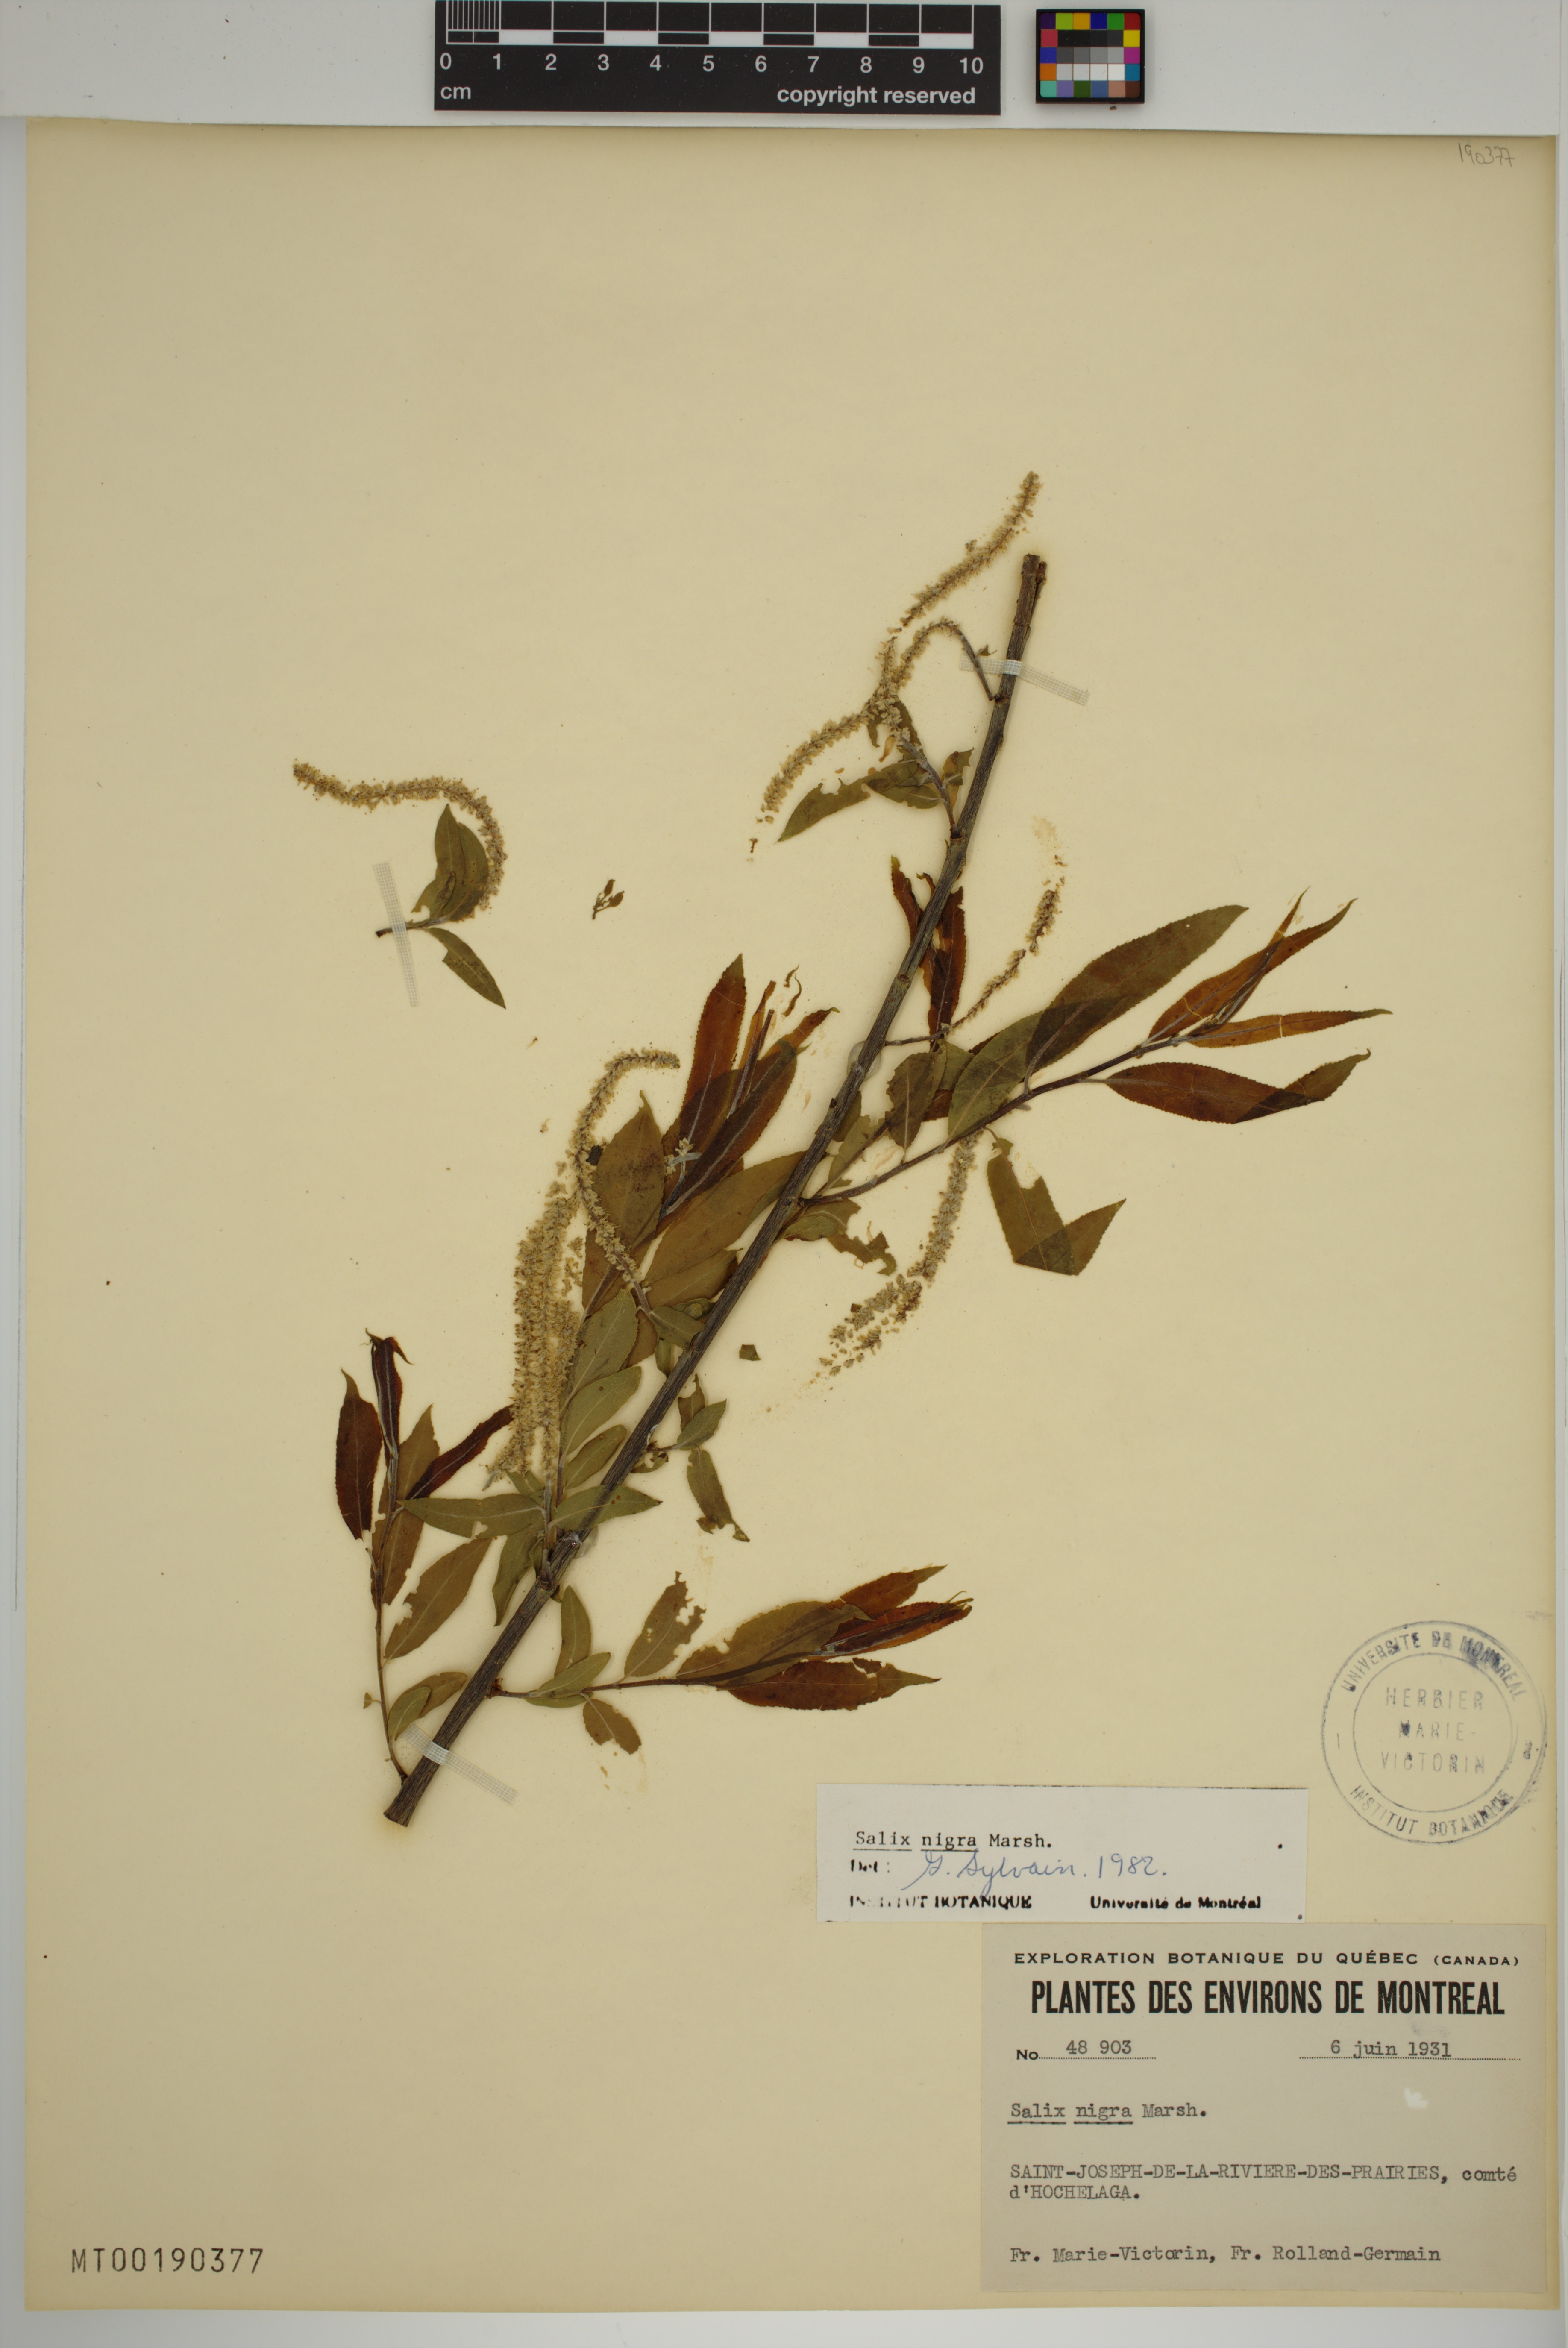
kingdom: Plantae
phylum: Tracheophyta
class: Magnoliopsida
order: Malpighiales
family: Salicaceae
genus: Salix
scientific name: Salix nigra
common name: Black willow
